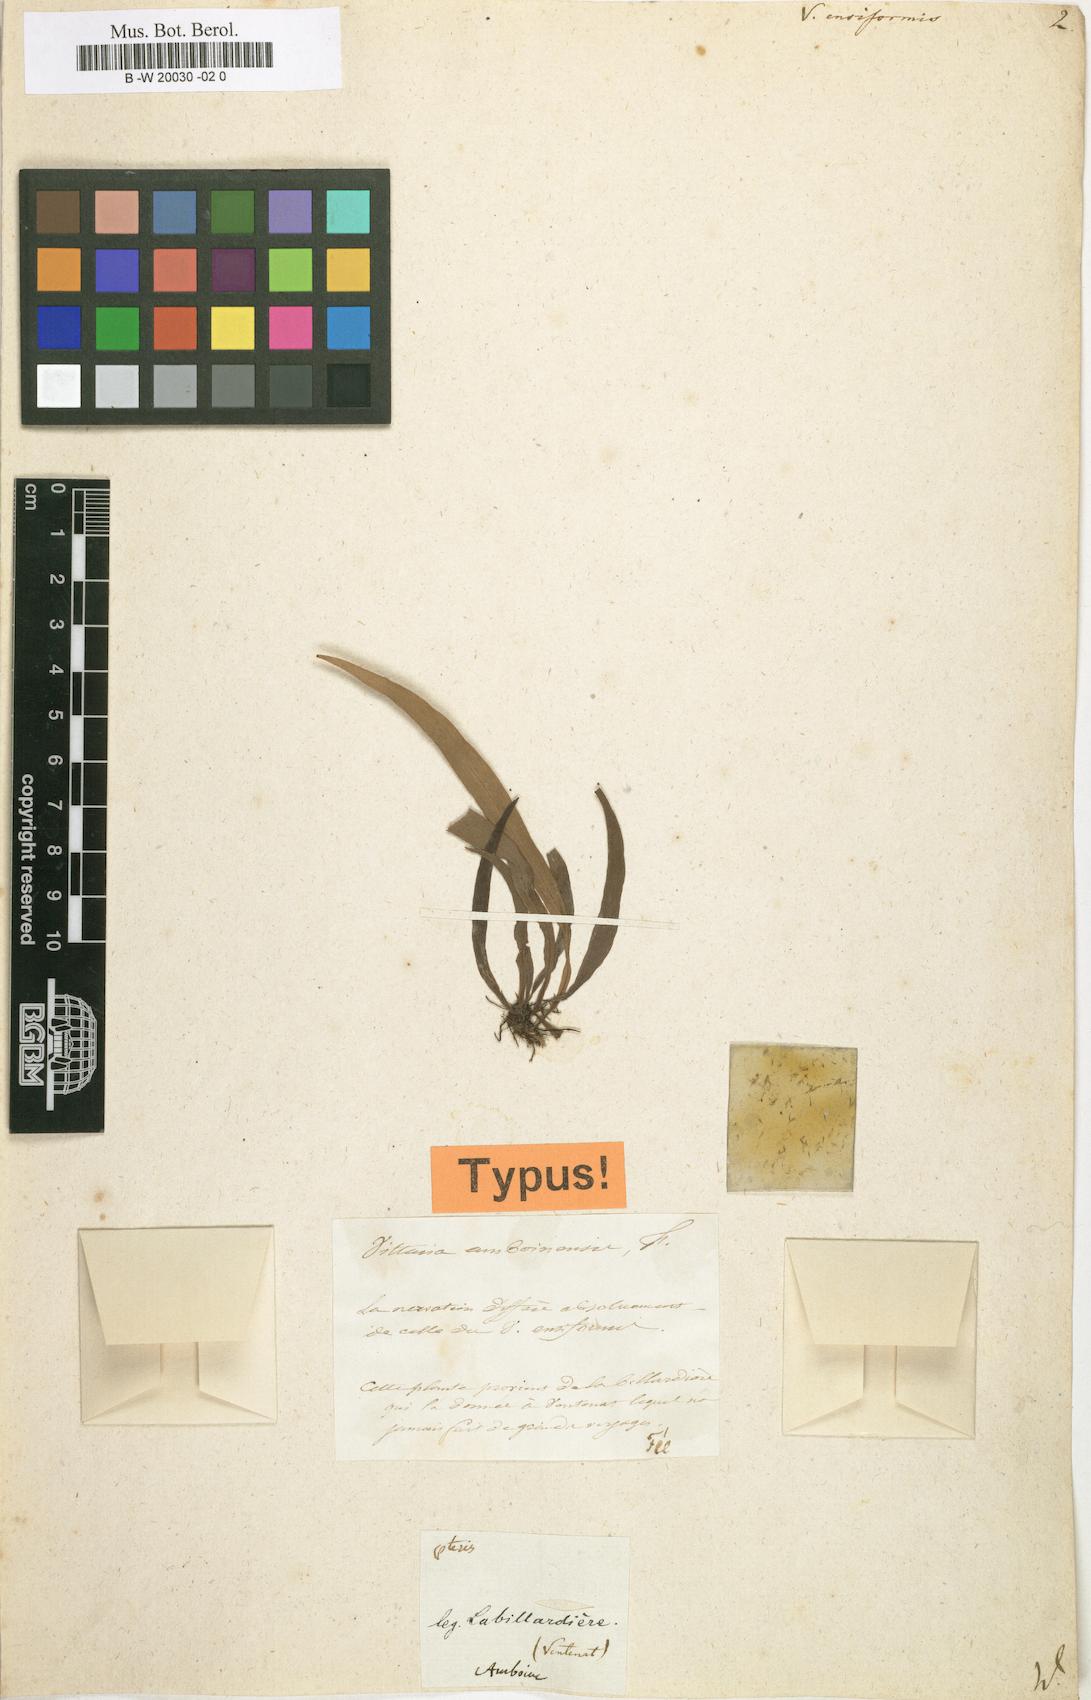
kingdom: Plantae
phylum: Tracheophyta
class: Polypodiopsida
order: Polypodiales
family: Pteridaceae
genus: Haplopteris
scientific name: Haplopteris ensiformis
